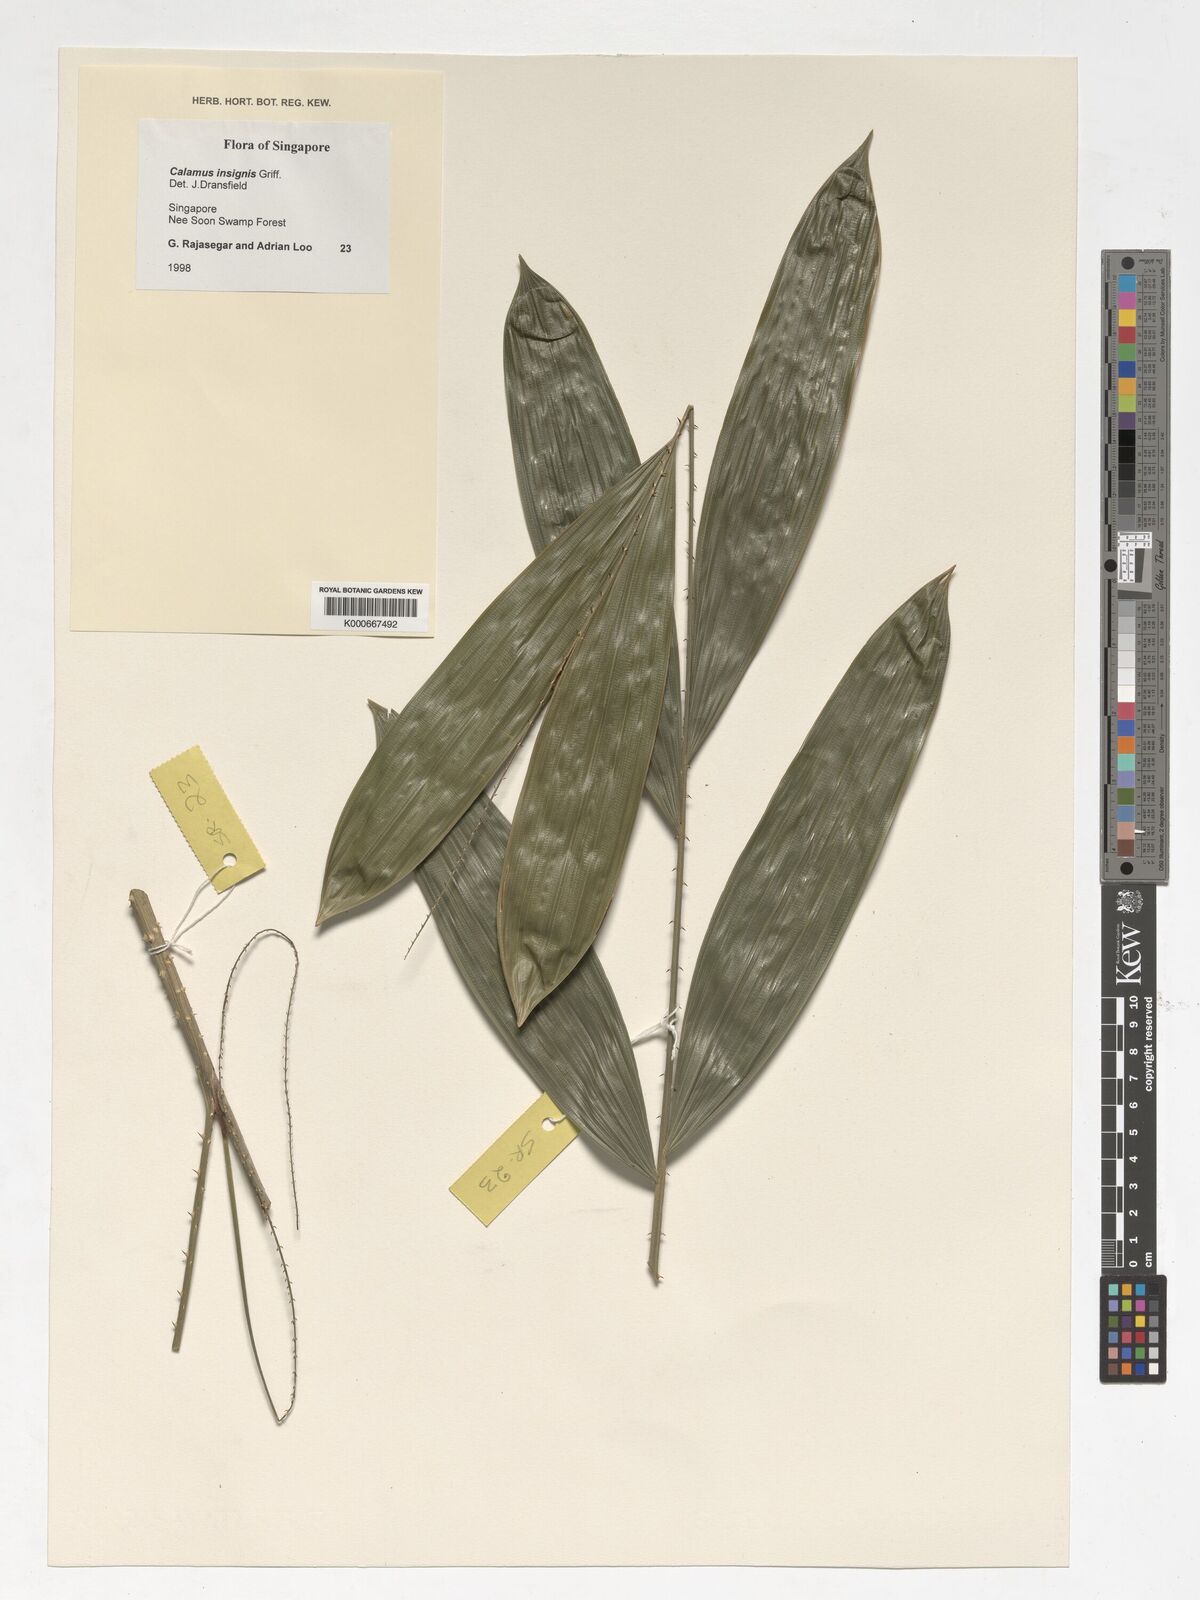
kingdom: Plantae
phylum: Tracheophyta
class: Liliopsida
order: Arecales
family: Arecaceae
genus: Calamus
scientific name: Calamus insignis
